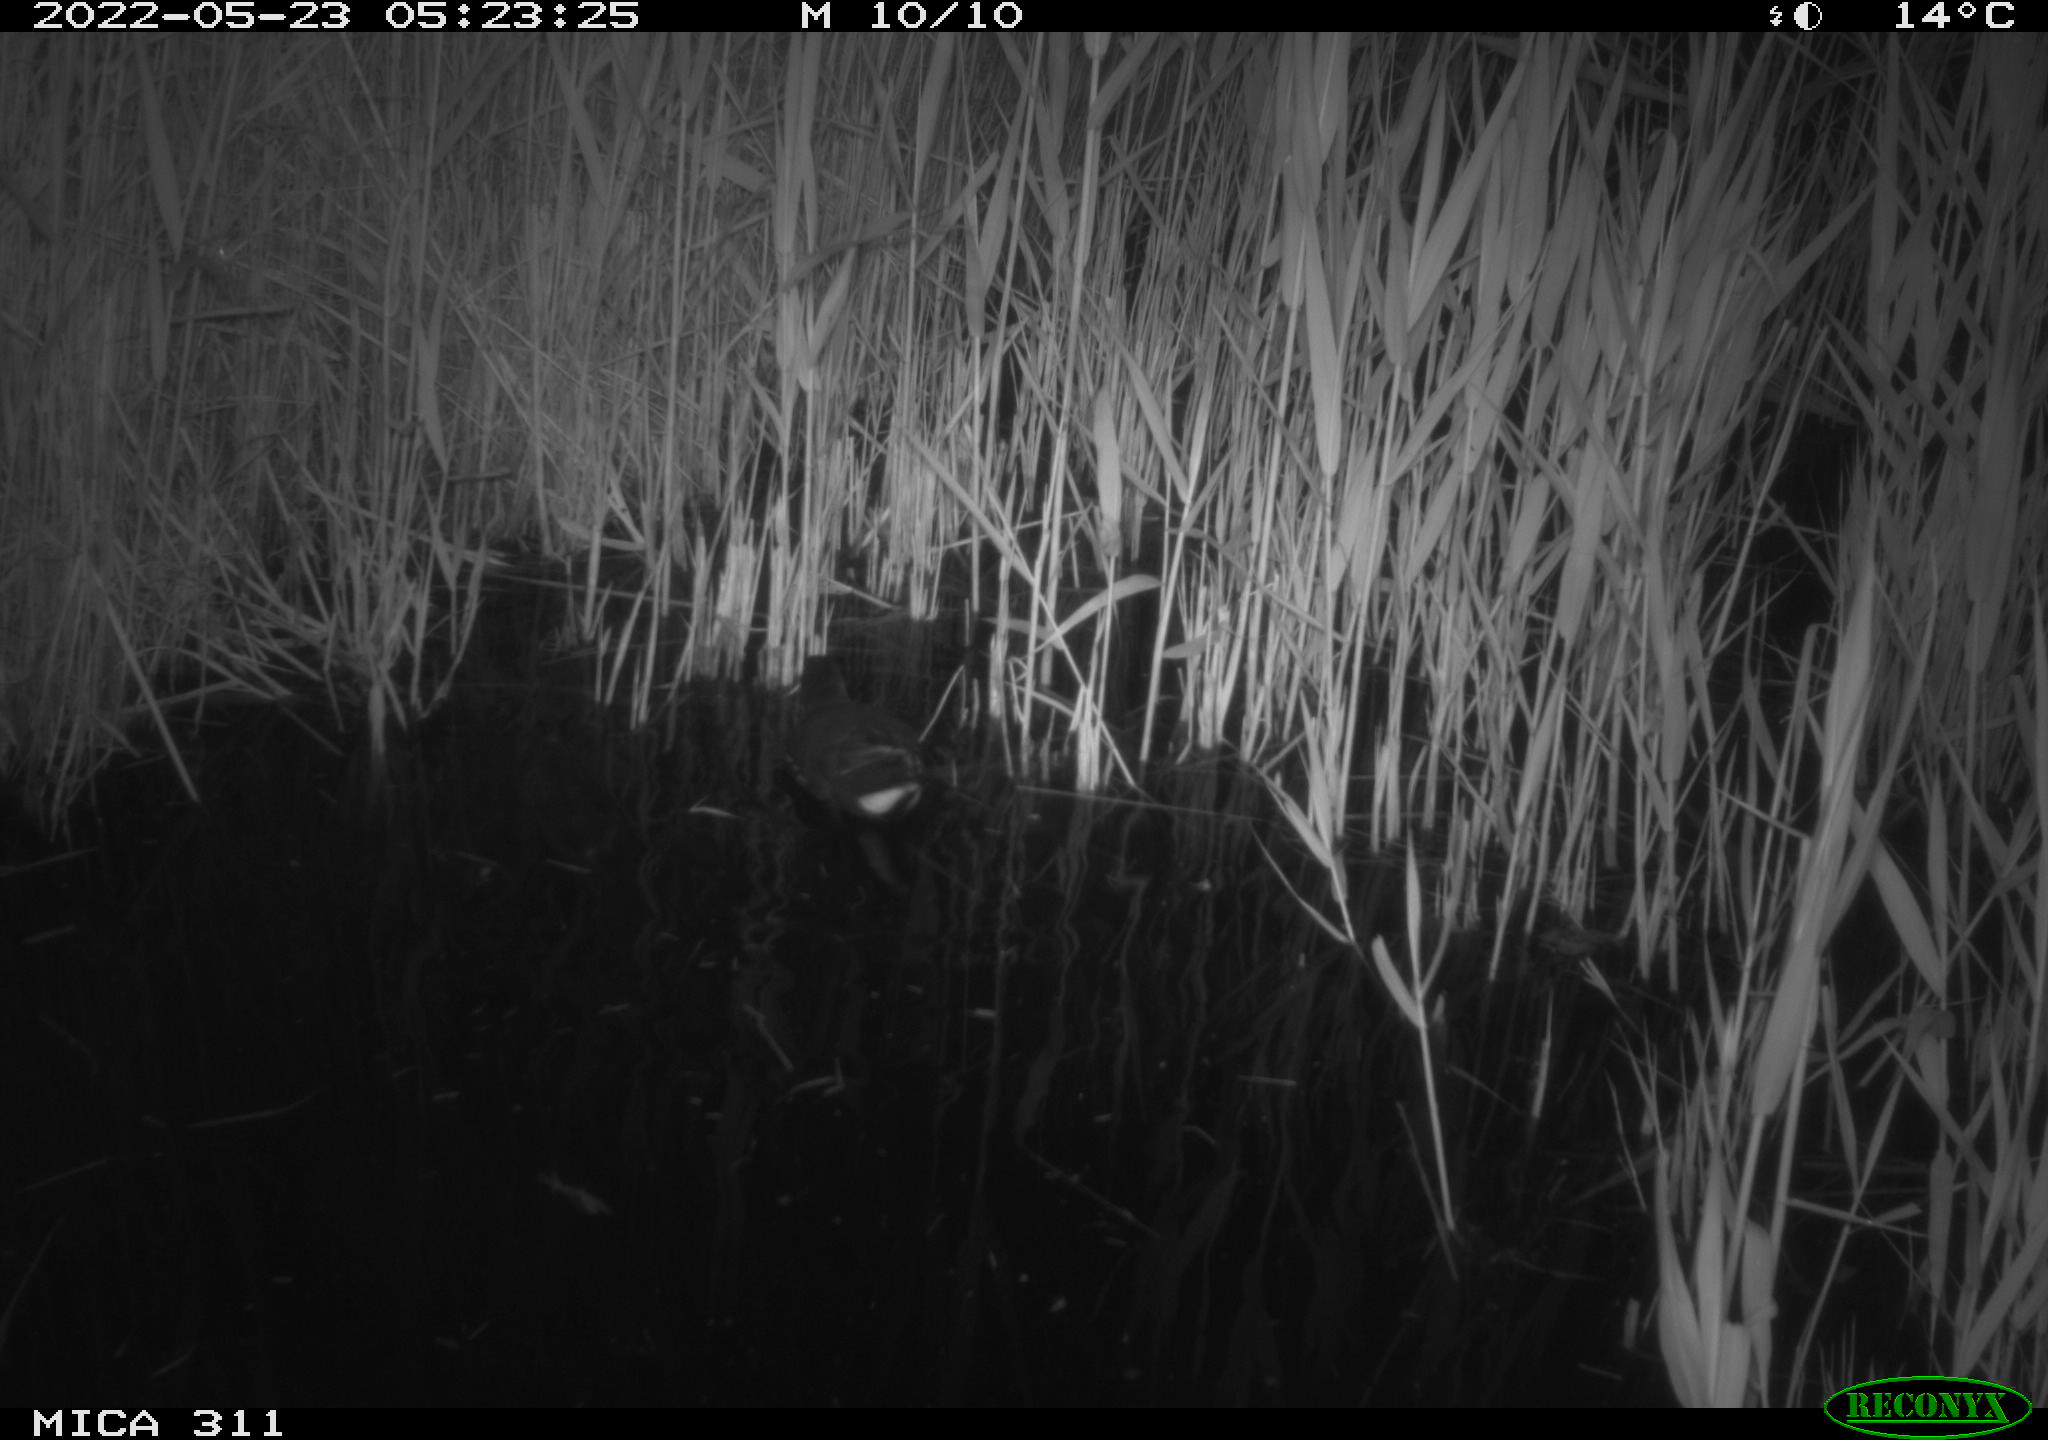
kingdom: Animalia
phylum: Chordata
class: Aves
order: Gruiformes
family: Rallidae
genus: Gallinula
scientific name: Gallinula chloropus
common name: Common moorhen
